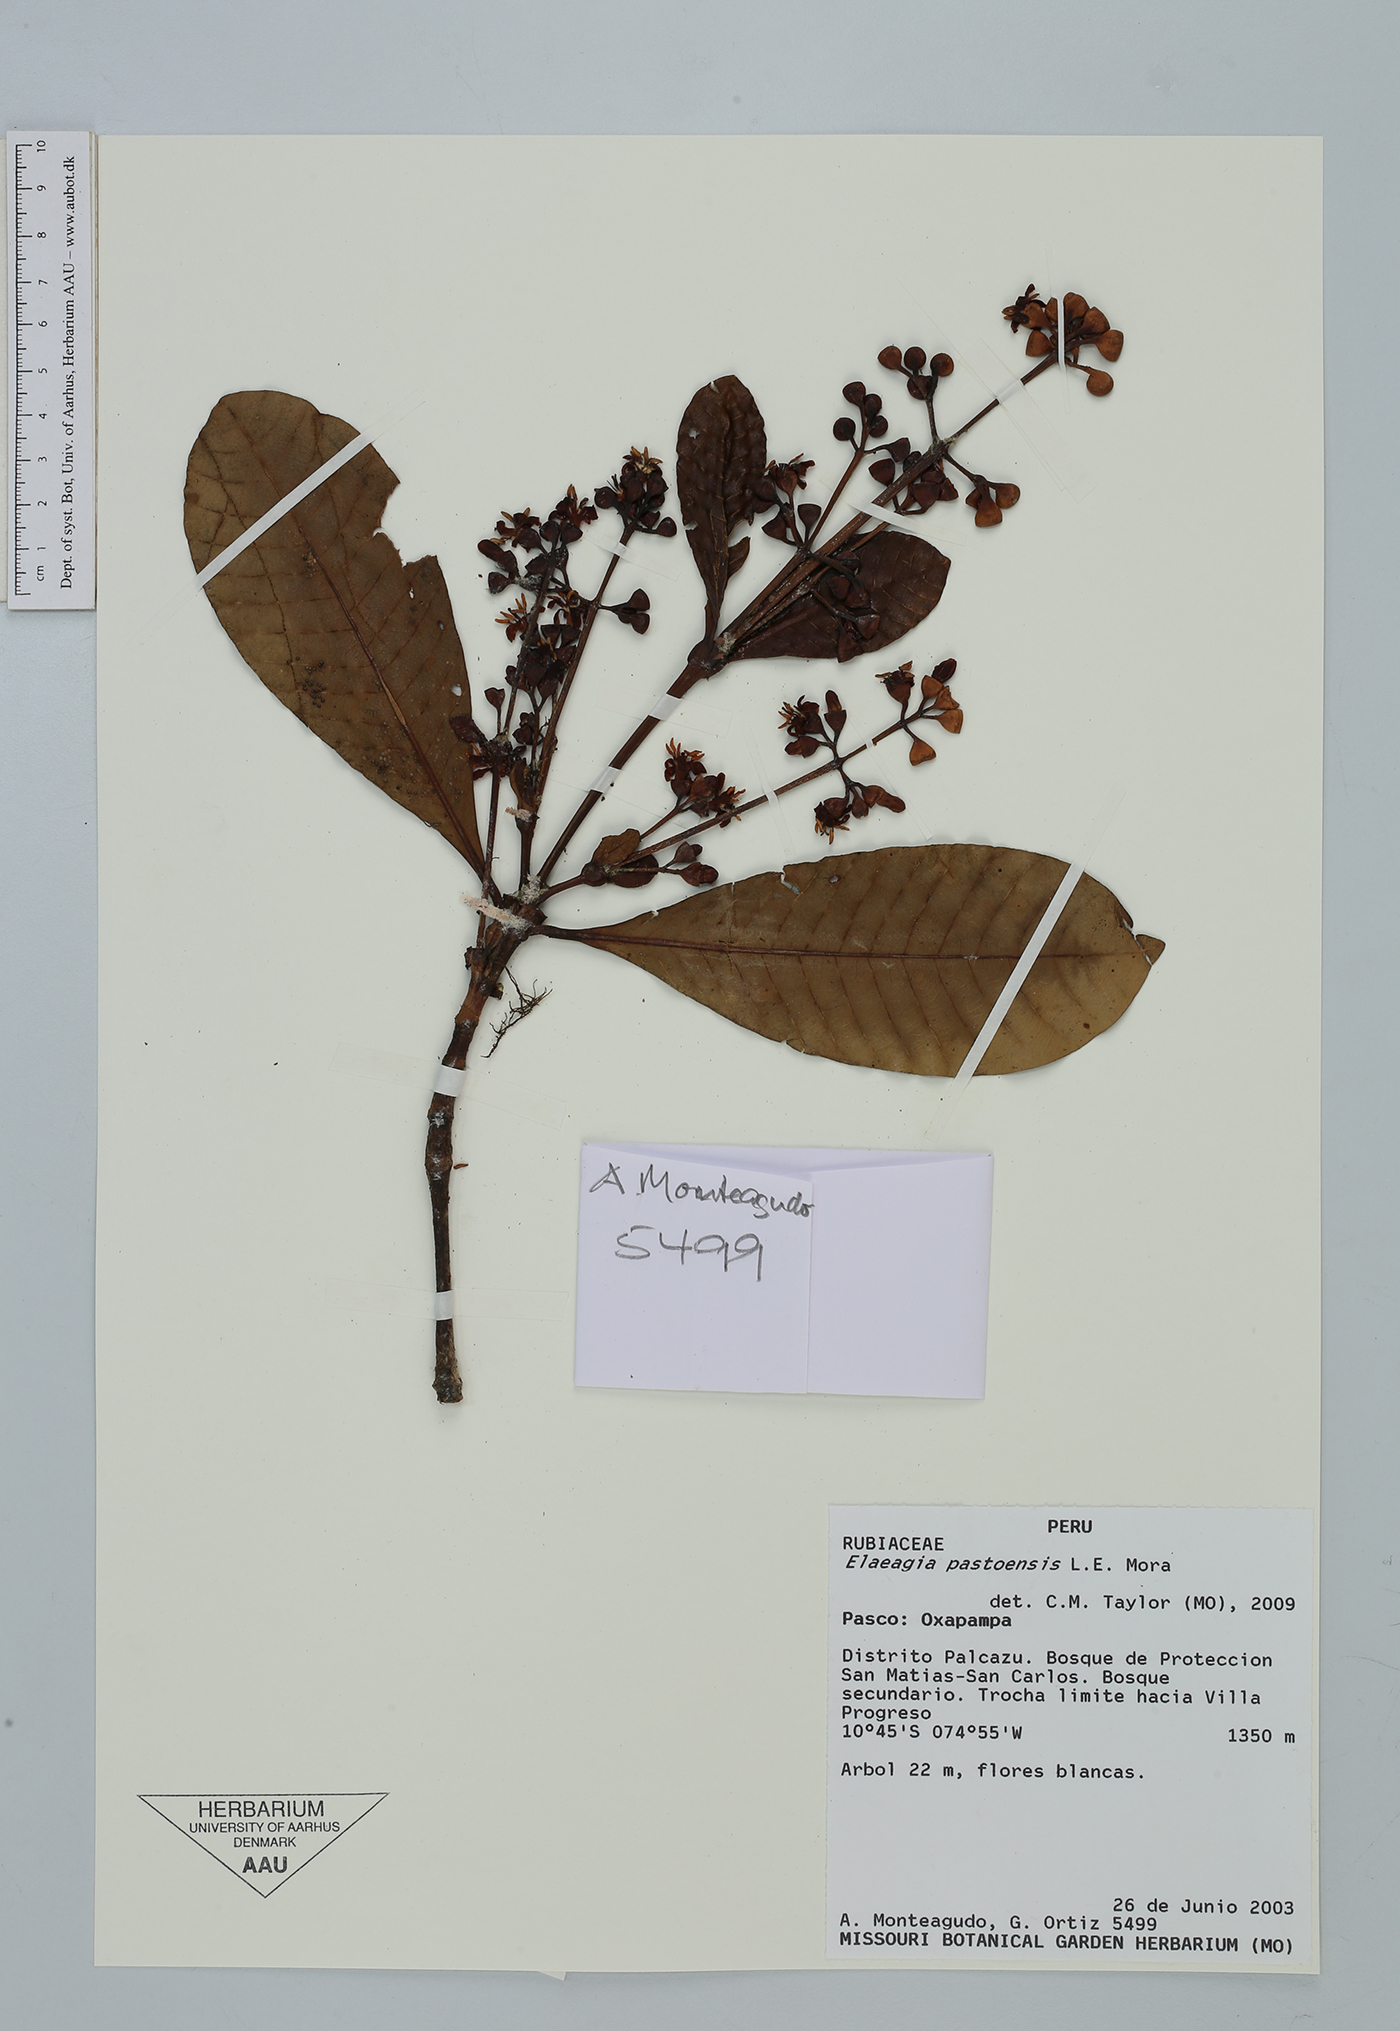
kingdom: Plantae
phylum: Tracheophyta
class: Magnoliopsida
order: Gentianales
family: Rubiaceae
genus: Elaeagia
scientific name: Elaeagia pastoensis
